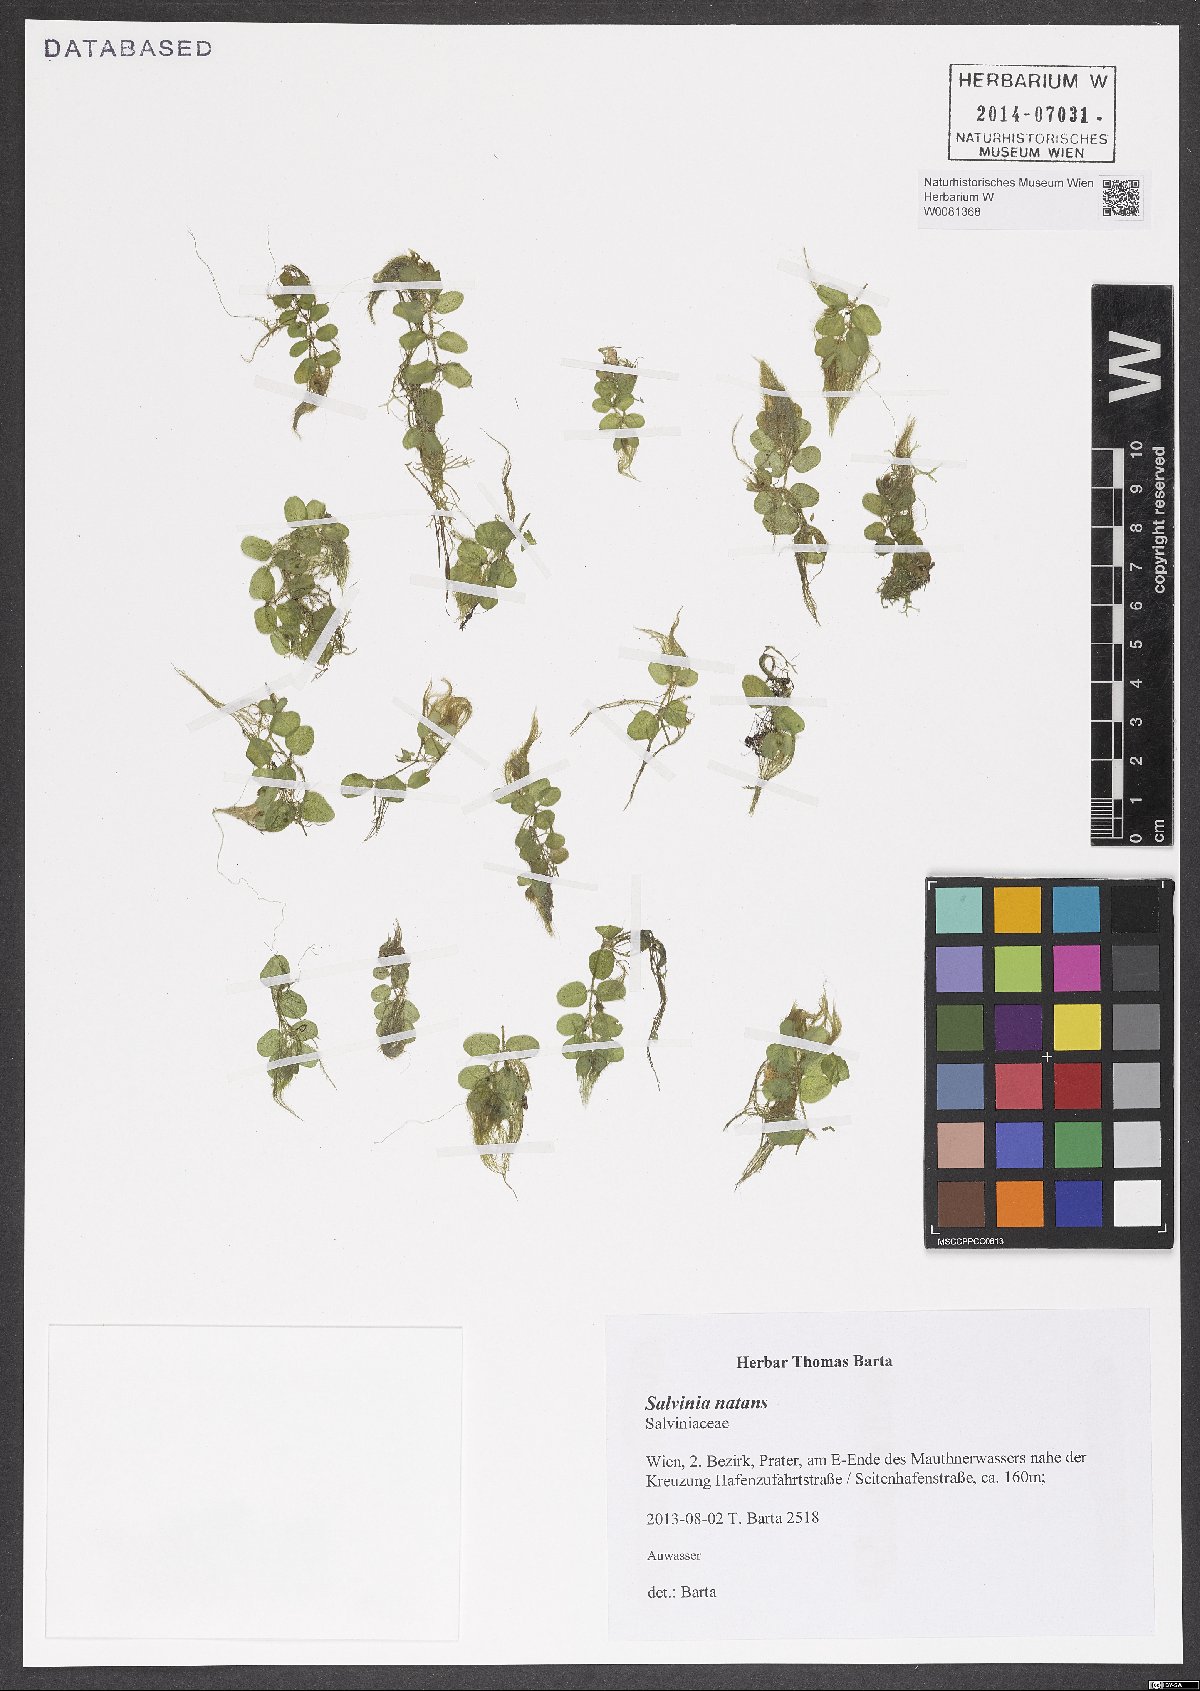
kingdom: Plantae
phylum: Tracheophyta
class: Polypodiopsida
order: Salviniales
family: Salviniaceae
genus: Salvinia
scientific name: Salvinia natans
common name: Floating fern
